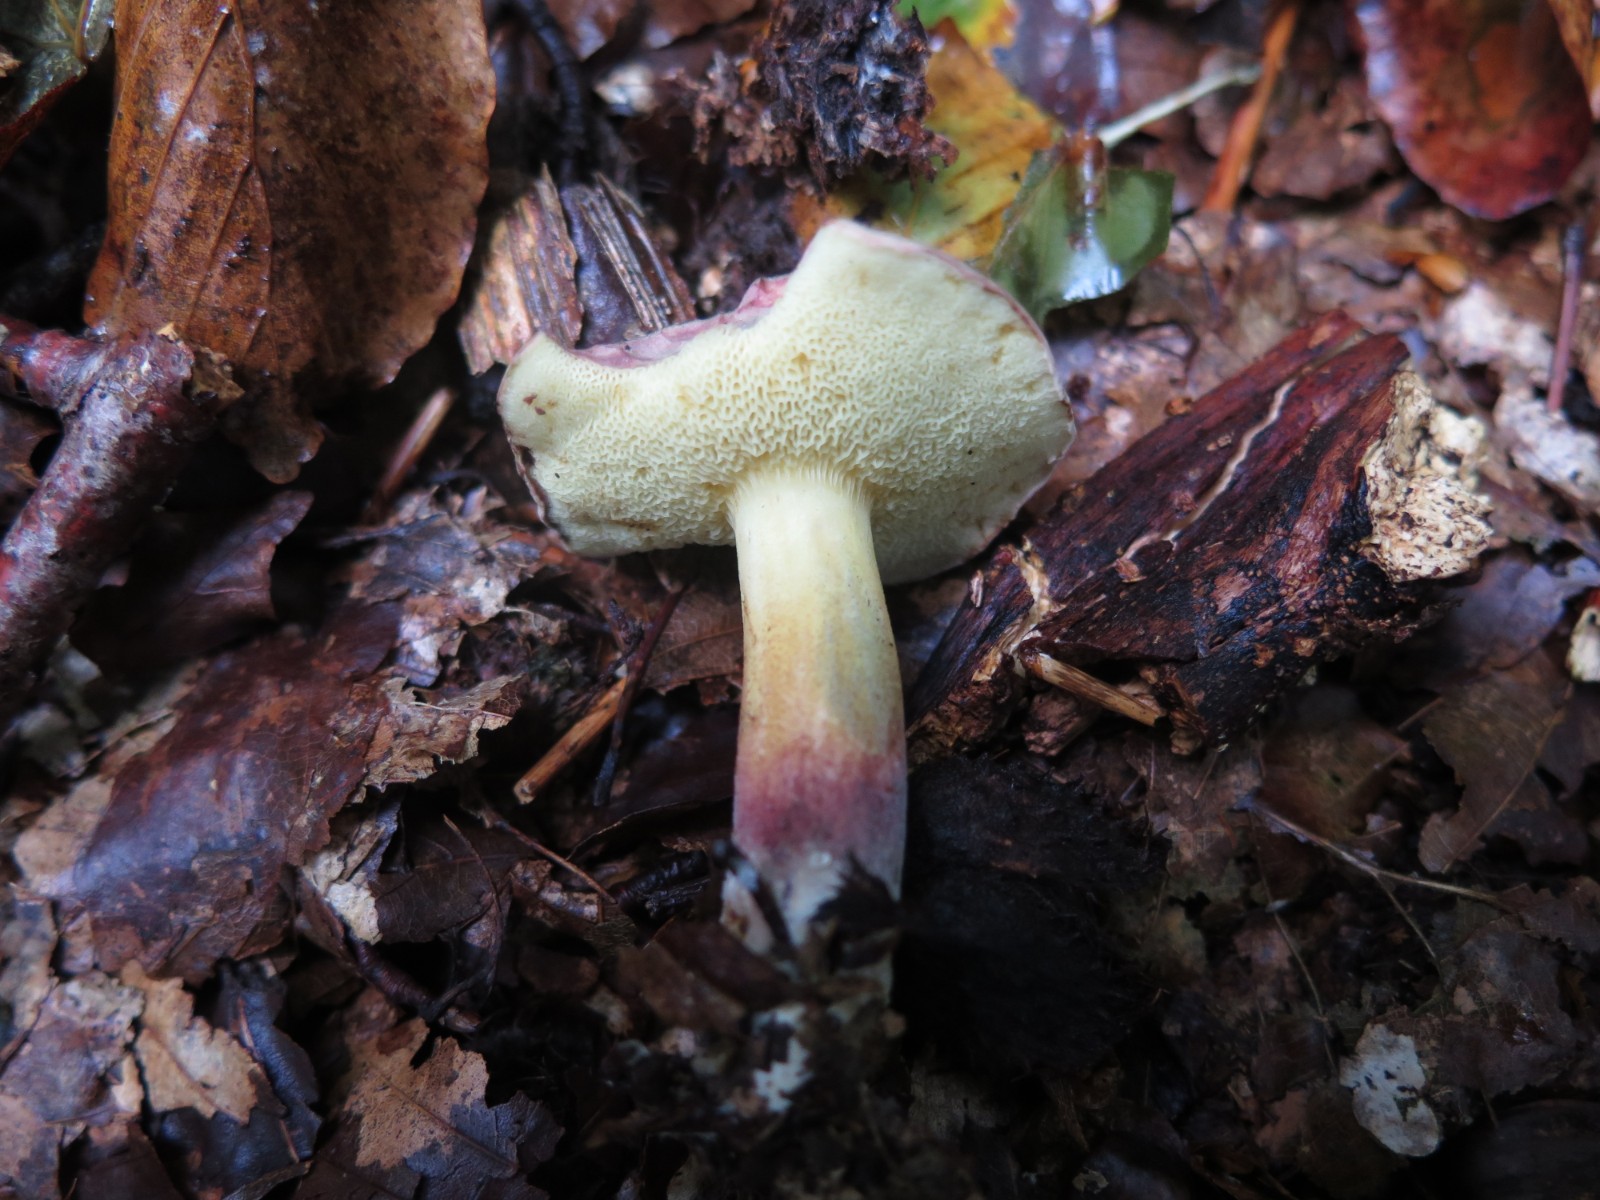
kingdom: Fungi
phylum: Basidiomycota
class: Agaricomycetes
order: Boletales
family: Boletaceae
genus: Xerocomellus
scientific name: Xerocomellus chrysenteron
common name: rødsprukken rørhat
